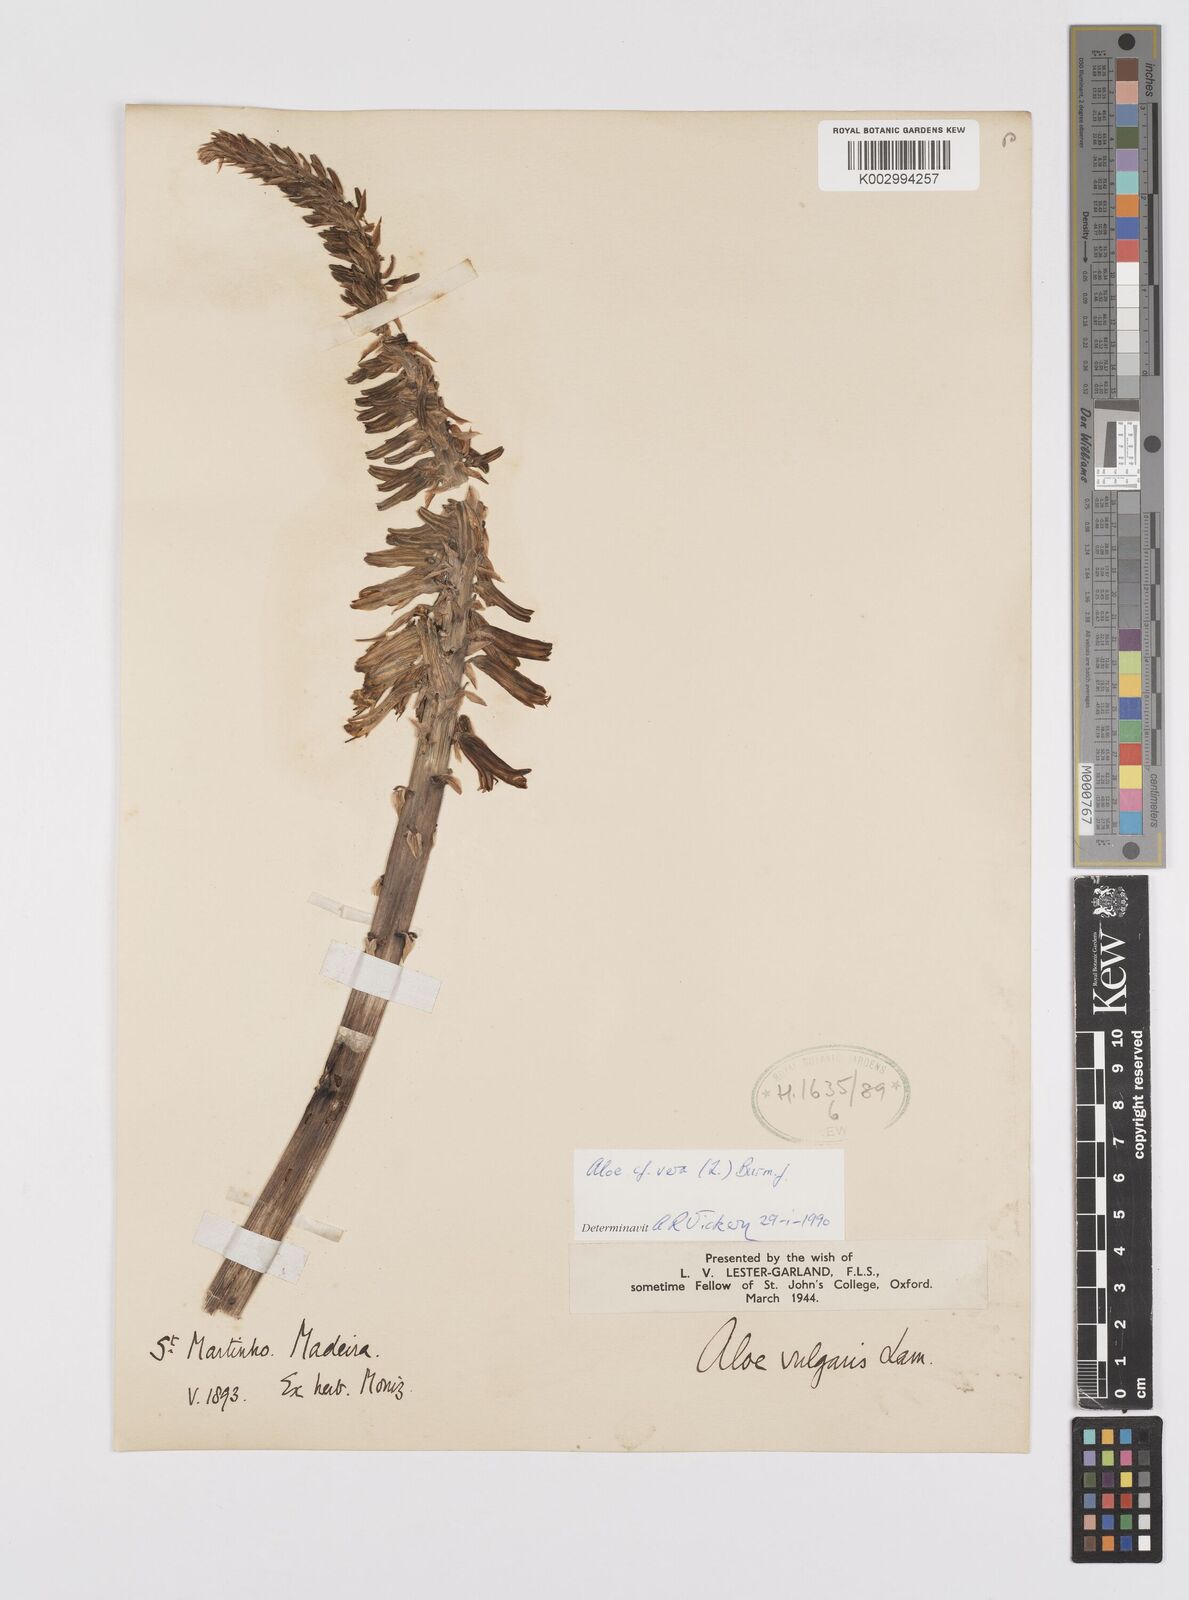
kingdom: Plantae
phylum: Tracheophyta
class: Liliopsida
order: Asparagales
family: Asphodelaceae
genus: Aloe
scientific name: Aloe vera
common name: Barbados aloe
